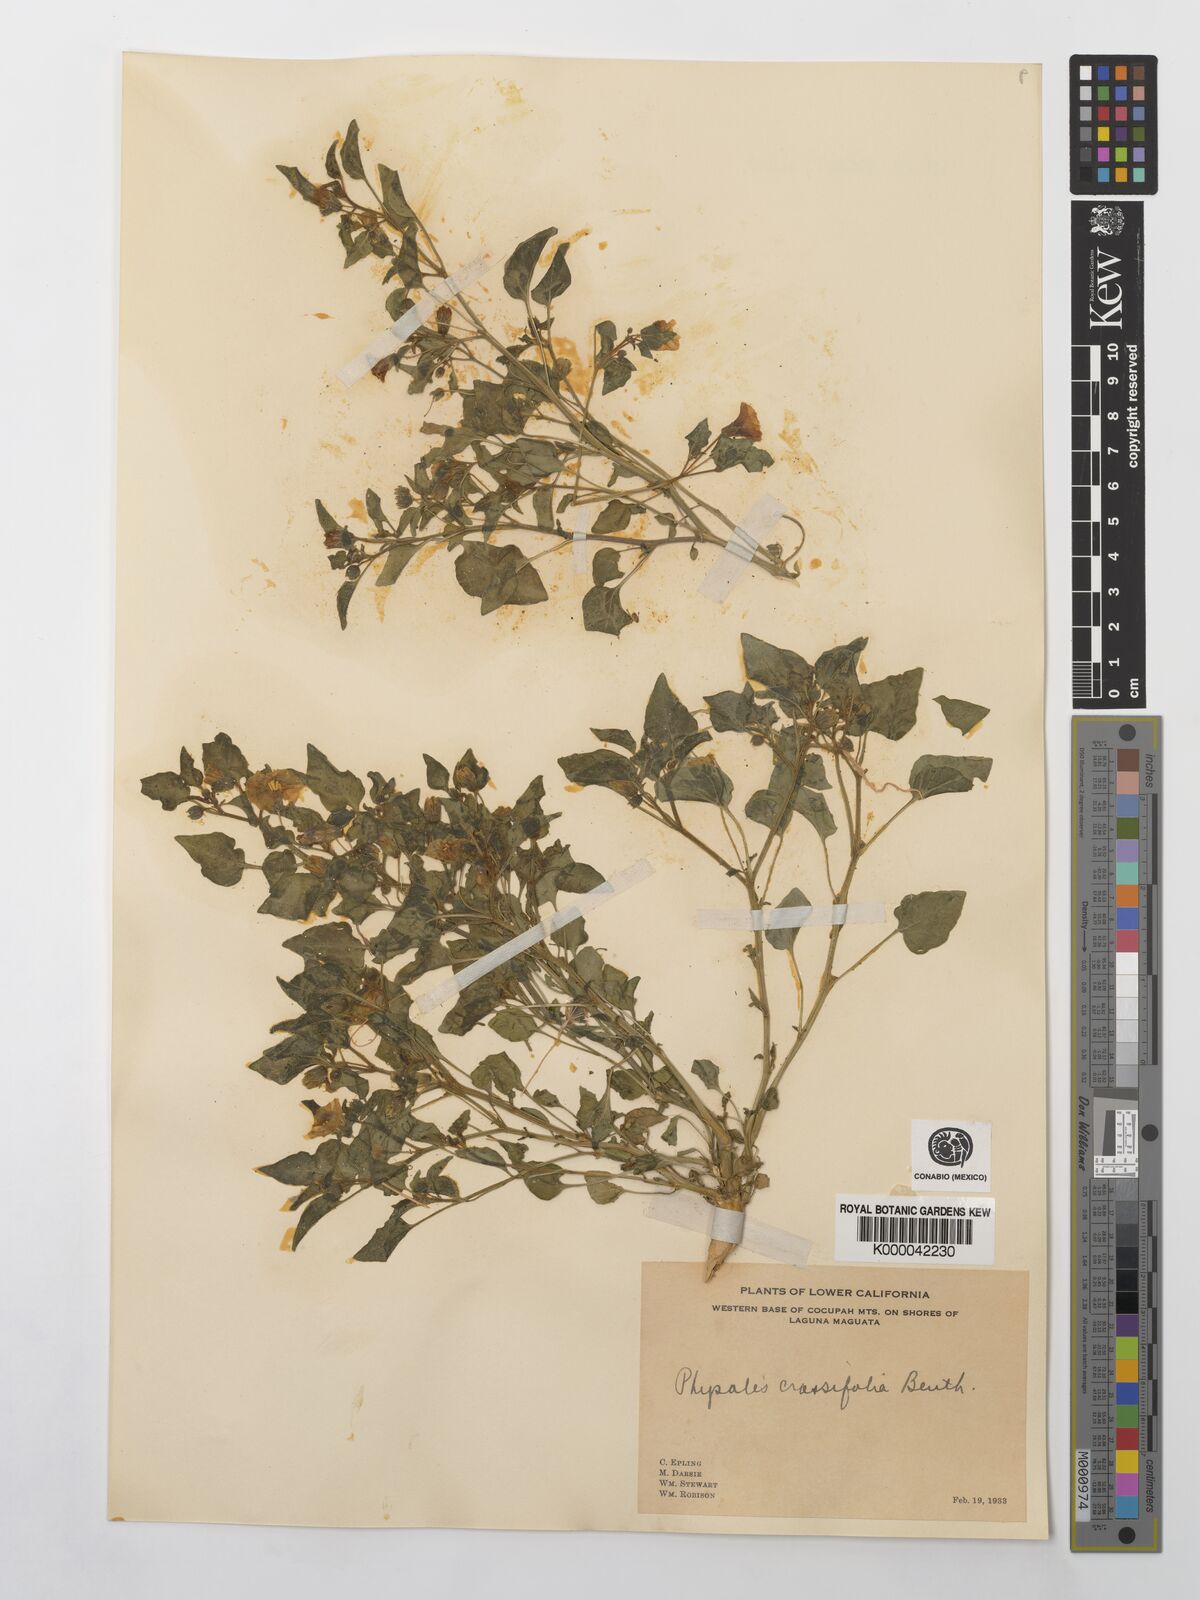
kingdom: Plantae
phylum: Tracheophyta
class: Magnoliopsida
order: Solanales
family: Solanaceae
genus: Physalis
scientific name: Physalis crassifolia
